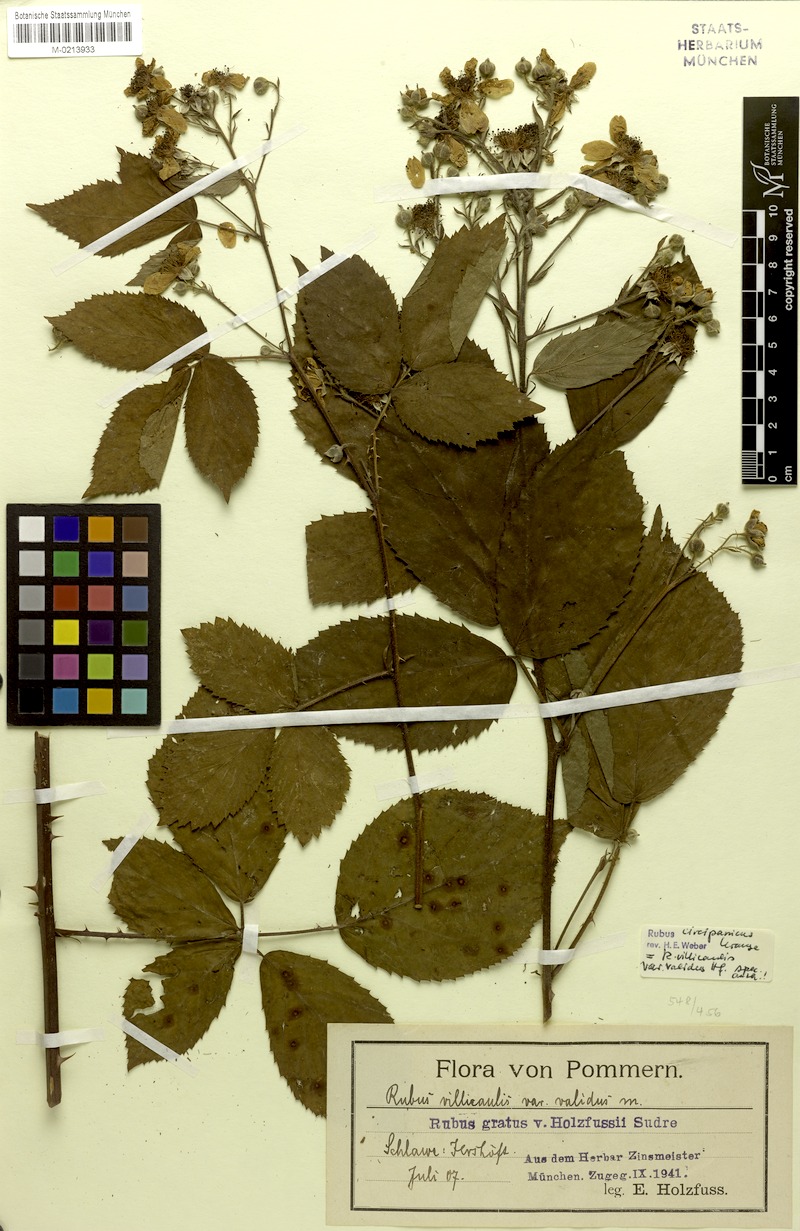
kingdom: Plantae
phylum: Tracheophyta
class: Magnoliopsida
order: Rosales
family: Rosaceae
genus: Rubus
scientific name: Rubus circipanicus
